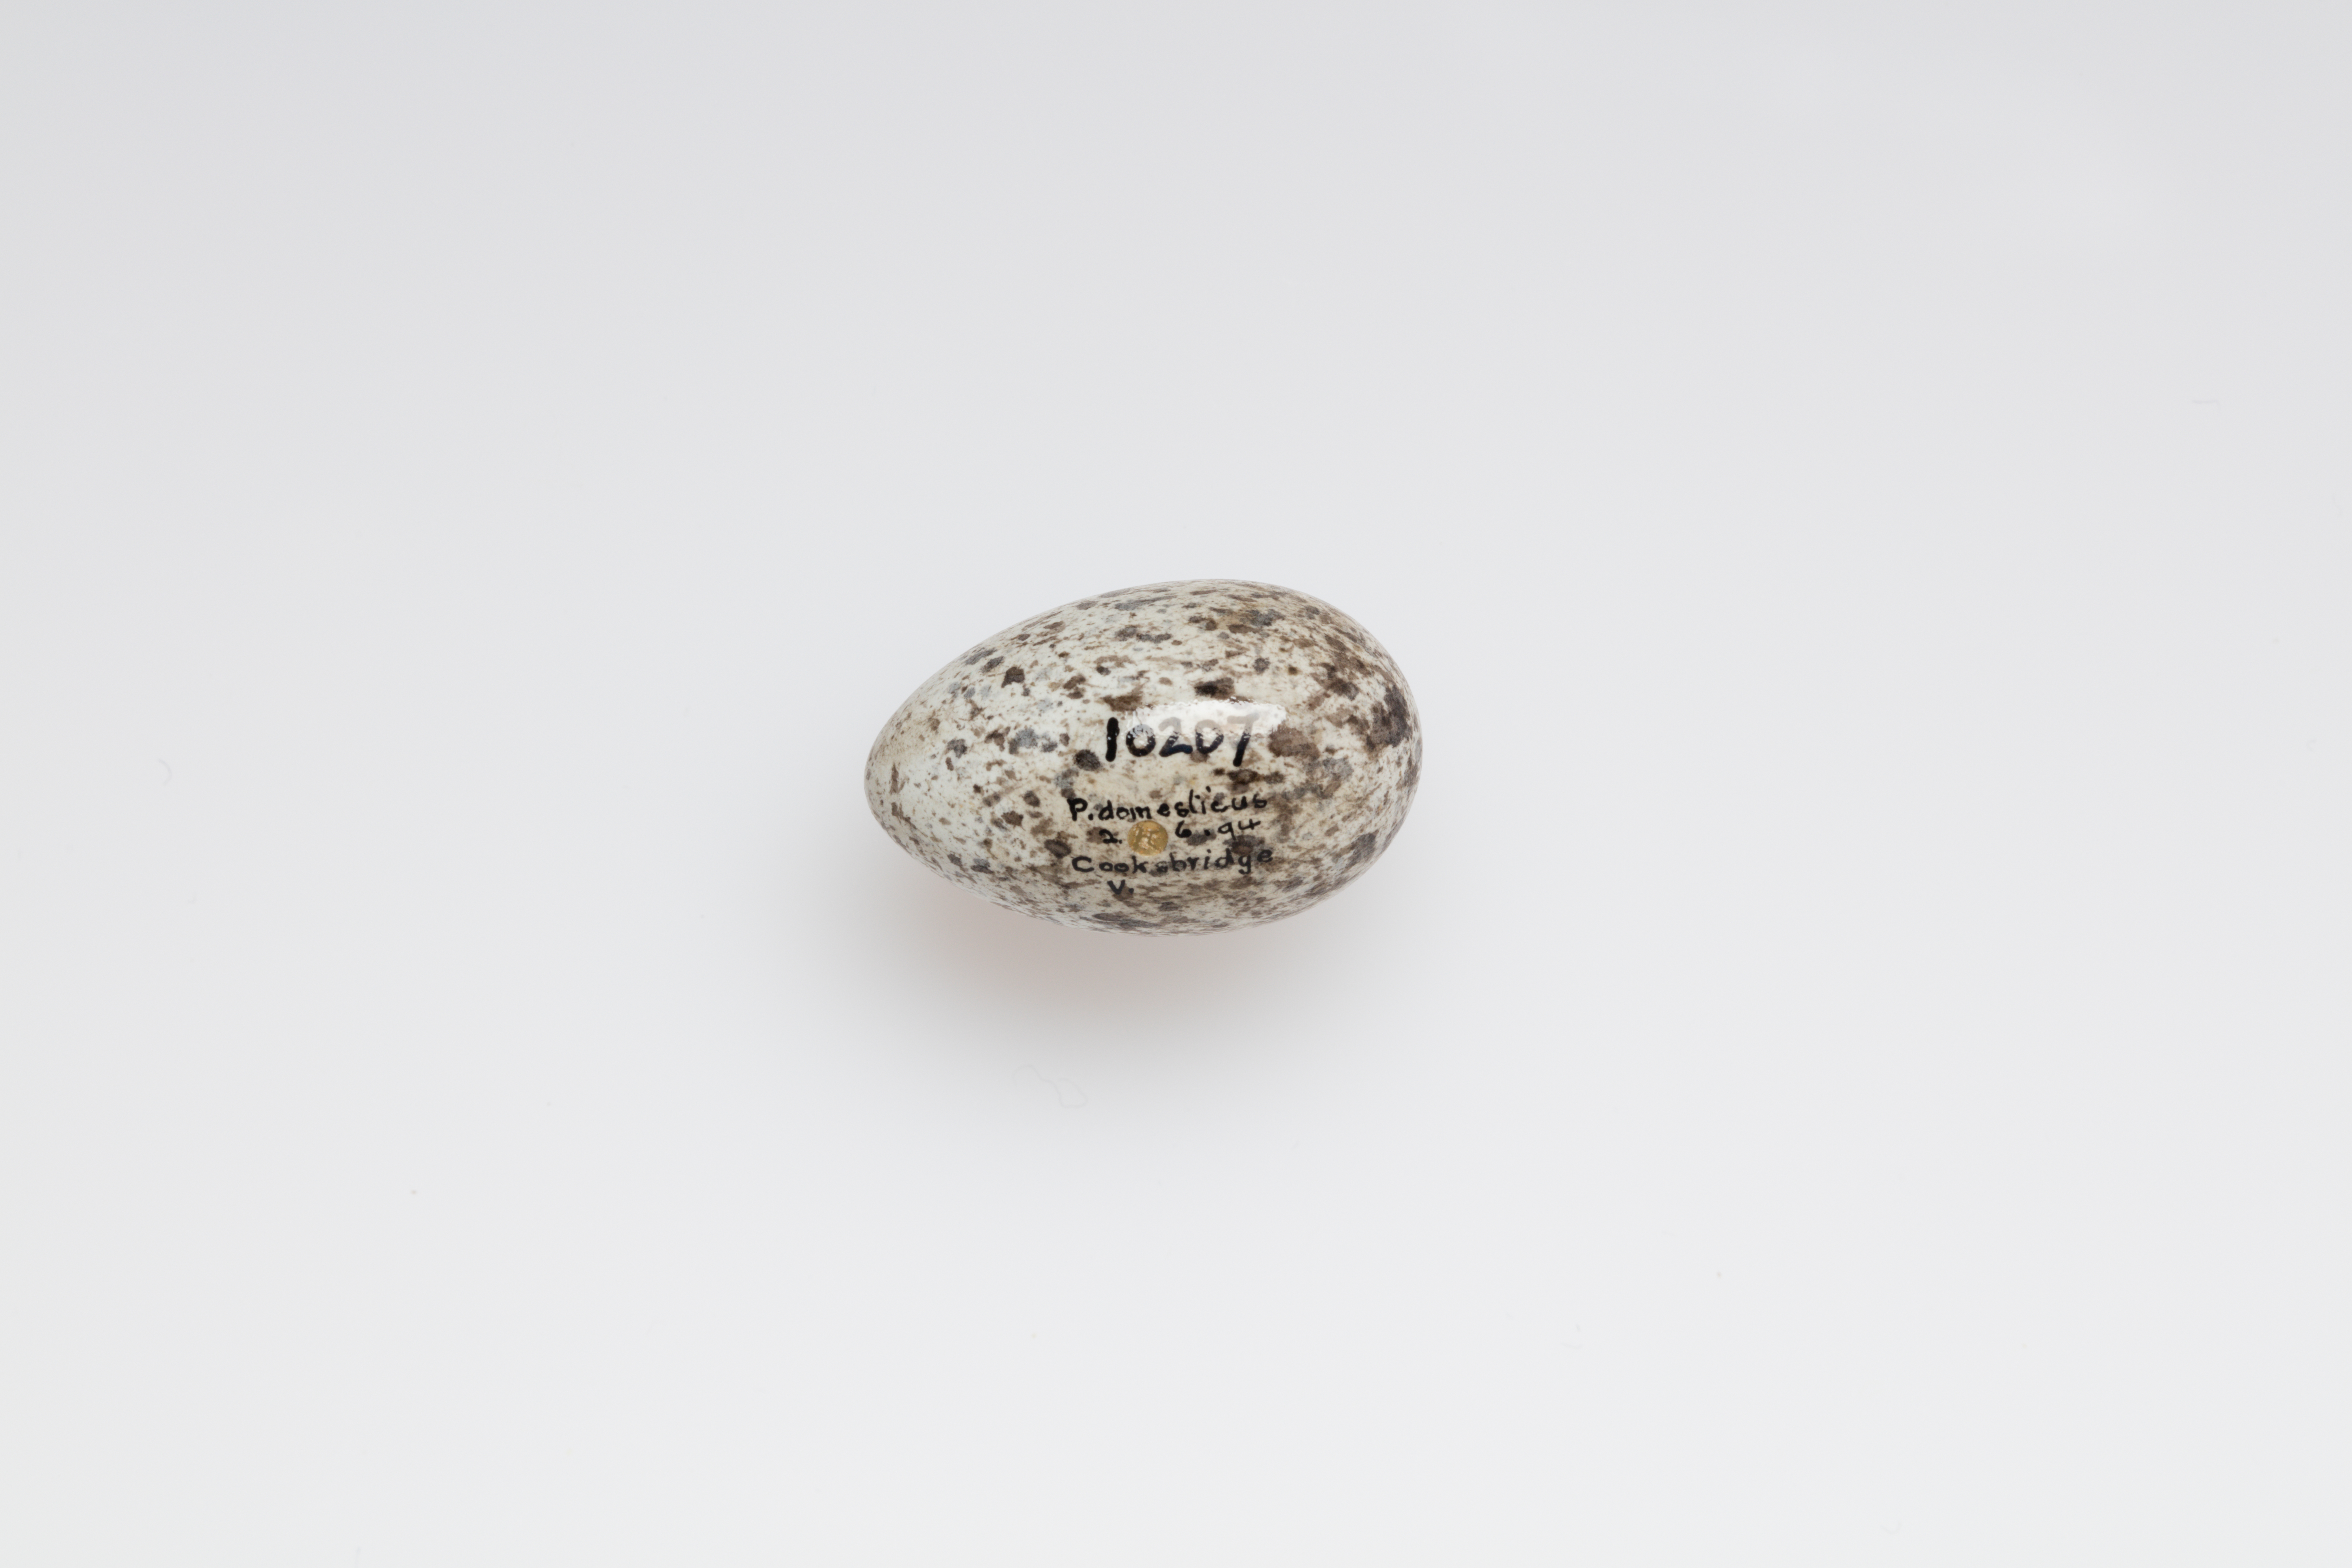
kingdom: Animalia
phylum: Chordata
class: Aves
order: Passeriformes
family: Passeridae
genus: Passer
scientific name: Passer domesticus
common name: House sparrow
